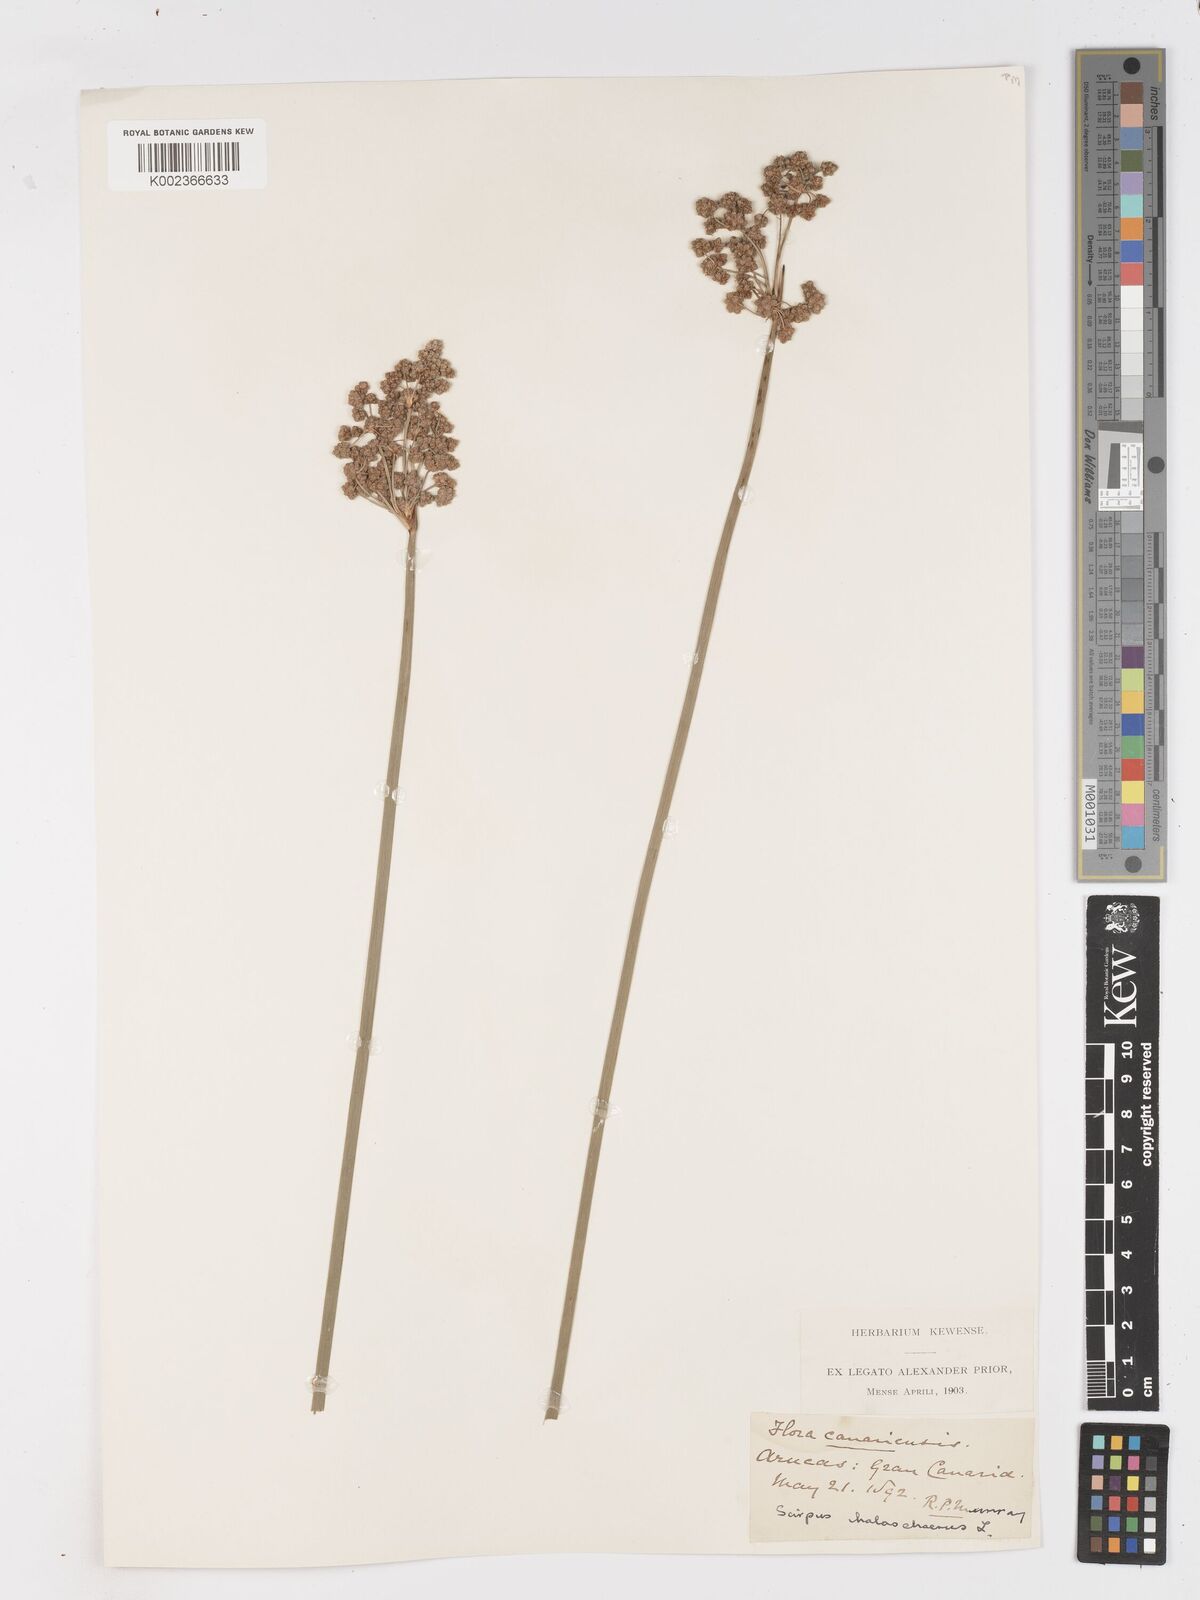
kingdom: Plantae
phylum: Tracheophyta
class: Liliopsida
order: Poales
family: Cyperaceae
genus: Scirpoides
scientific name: Scirpoides holoschoenus
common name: Round-headed club-rush
